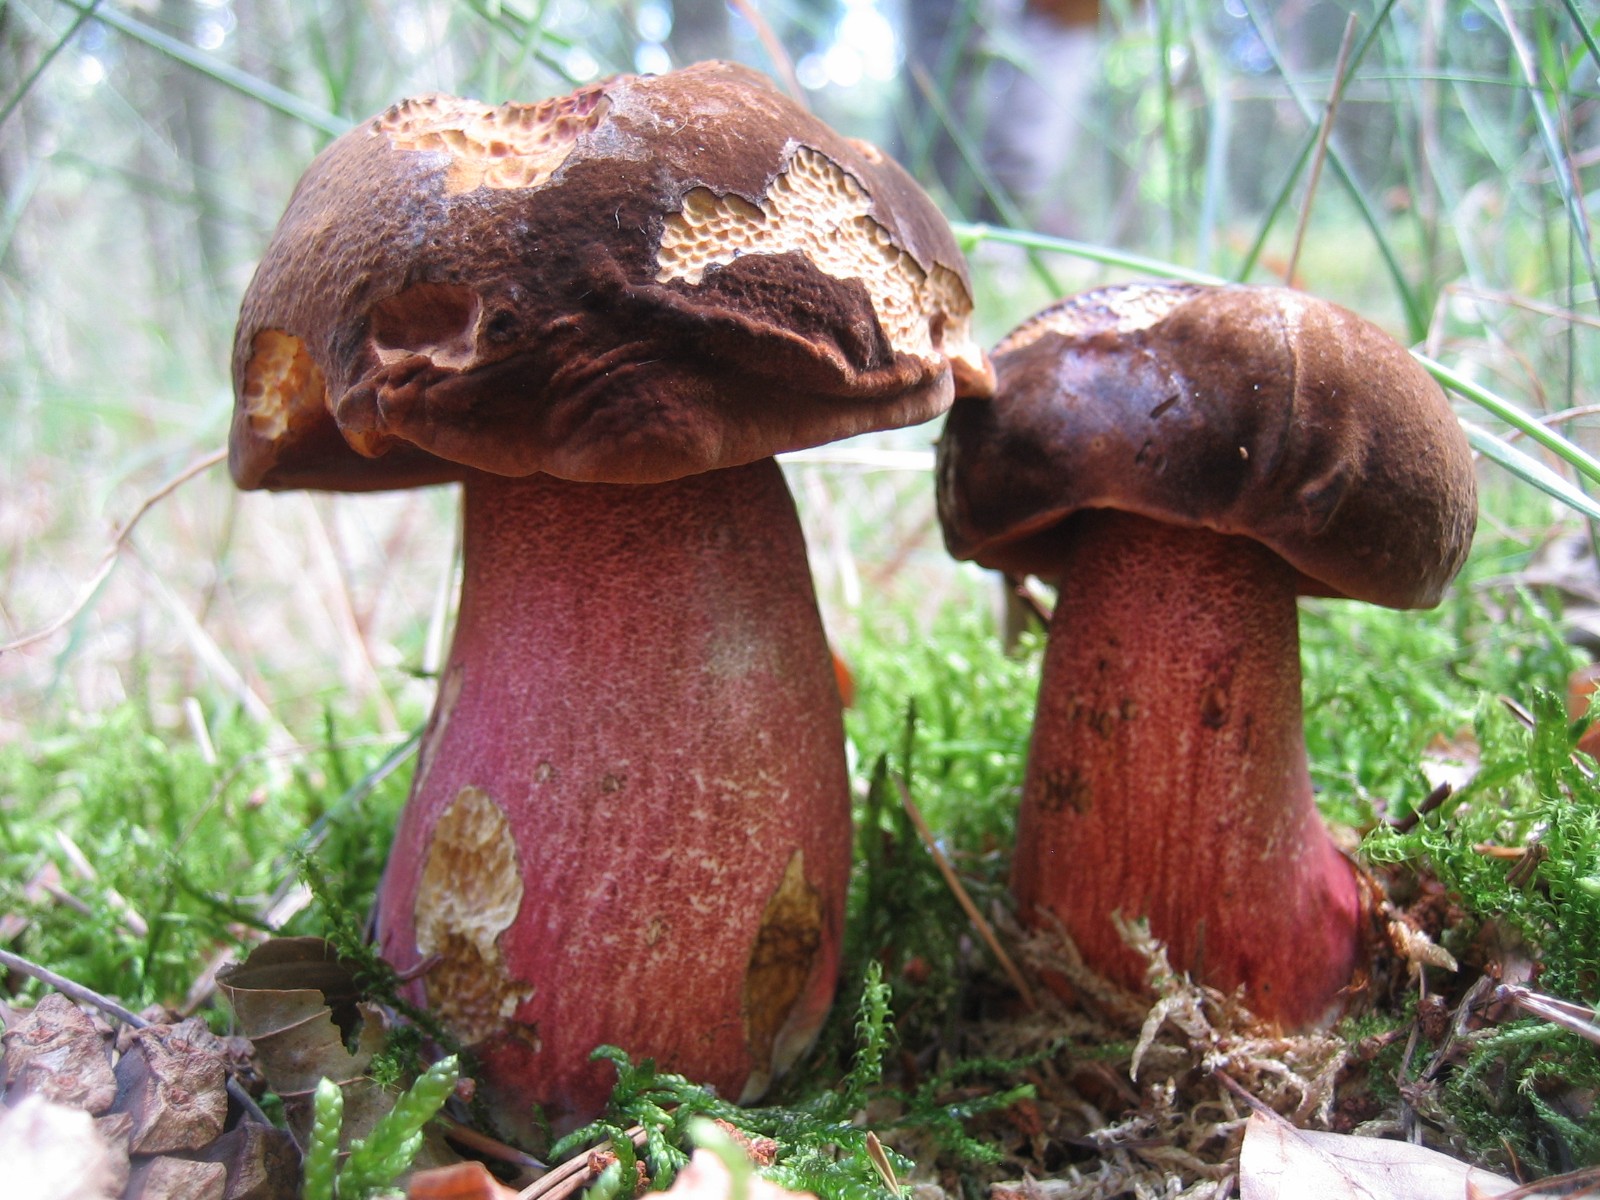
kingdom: Fungi
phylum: Basidiomycota
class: Agaricomycetes
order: Boletales
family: Boletaceae
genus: Neoboletus
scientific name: Neoboletus erythropus
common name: punktstokket indigorørhat
